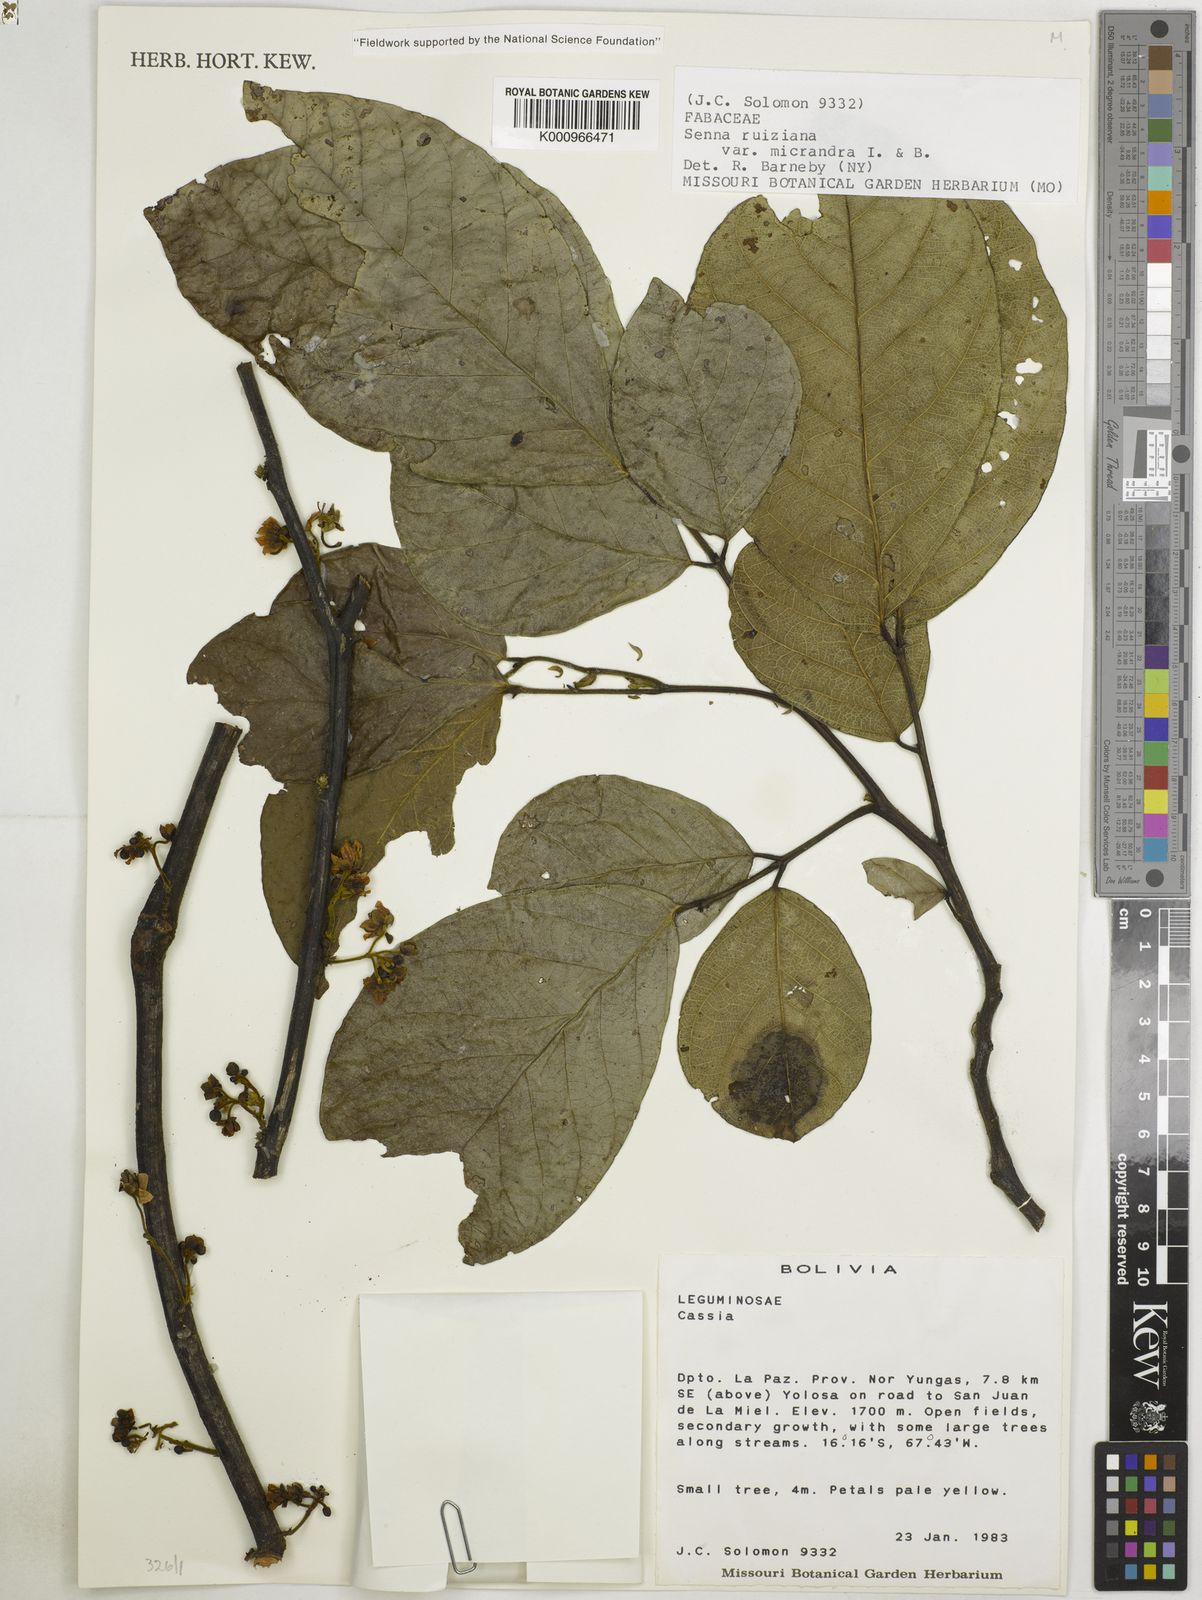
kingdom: Plantae
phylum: Tracheophyta
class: Magnoliopsida
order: Fabales
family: Fabaceae
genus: Senna
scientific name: Senna ruiziana
